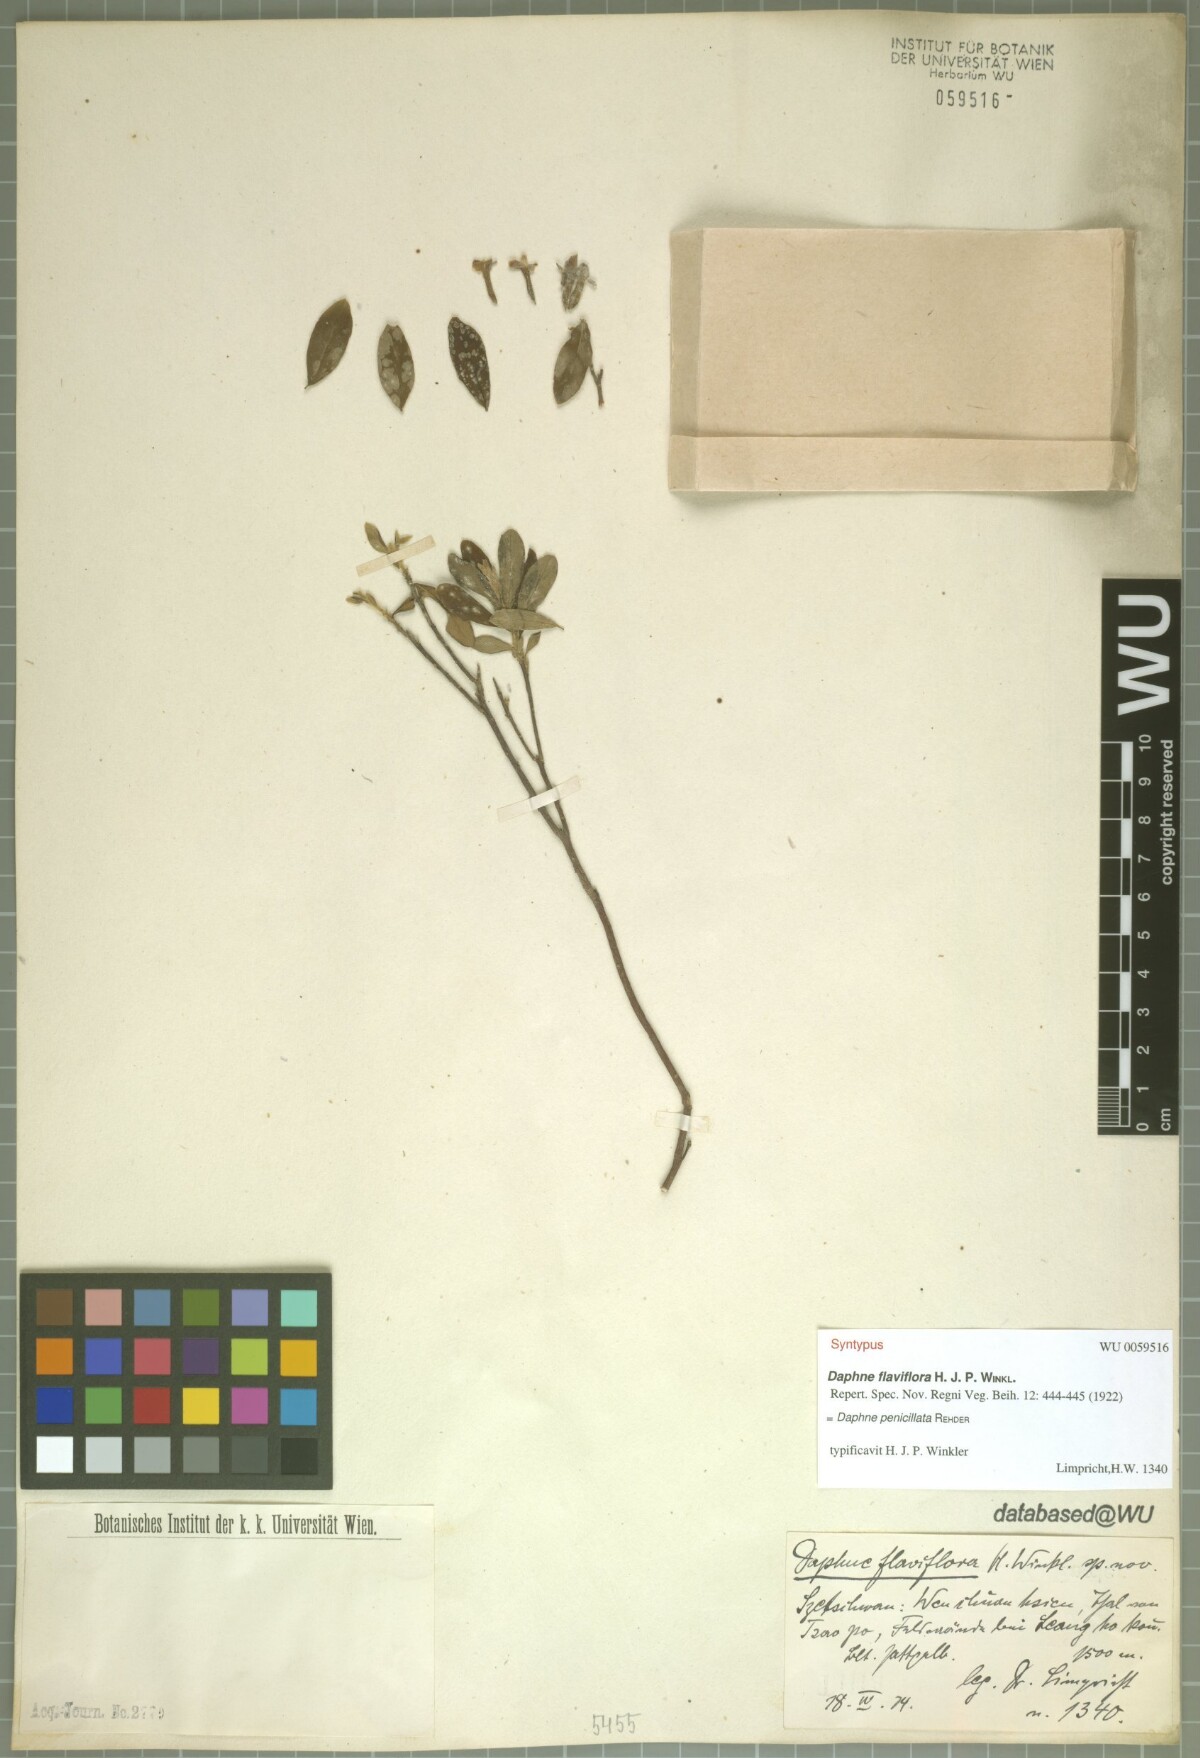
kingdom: Plantae
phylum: Tracheophyta
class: Magnoliopsida
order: Malvales
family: Thymelaeaceae
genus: Wikstroemia
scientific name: Wikstroemia penicillata
